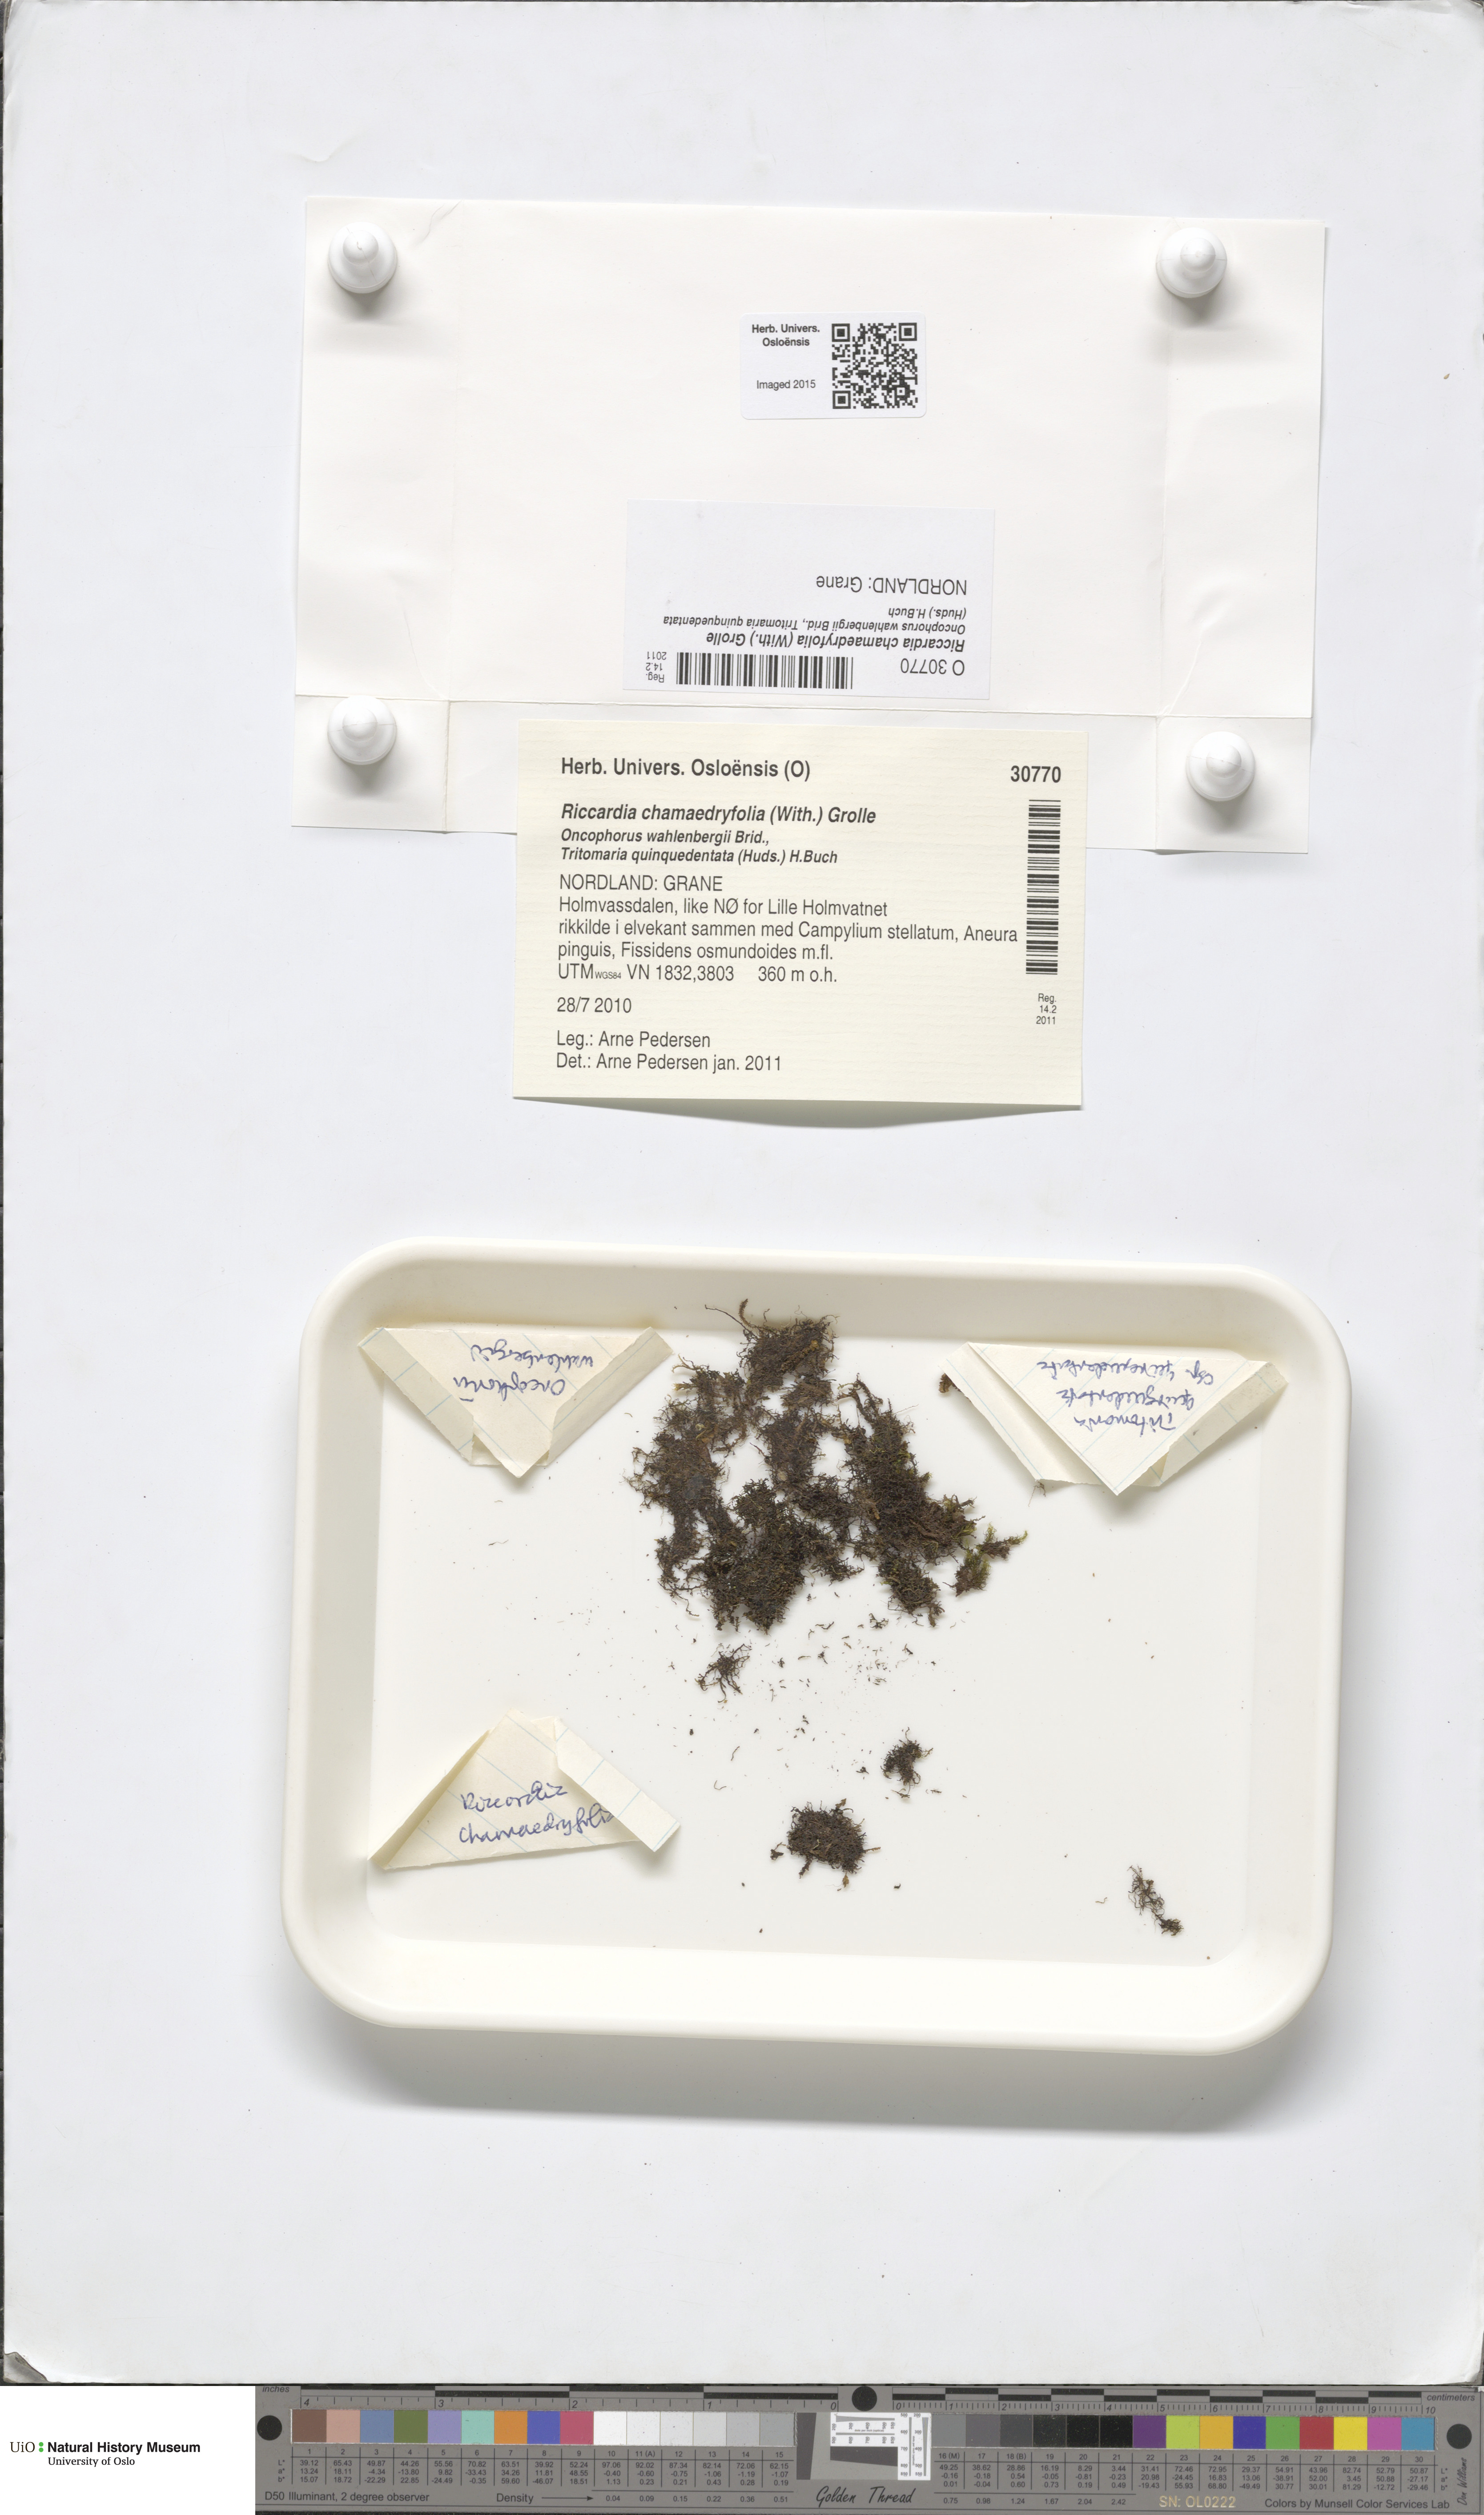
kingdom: Plantae
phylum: Marchantiophyta
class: Jungermanniopsida
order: Metzgeriales
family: Aneuraceae
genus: Riccardia
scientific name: Riccardia chamaedryfolia
